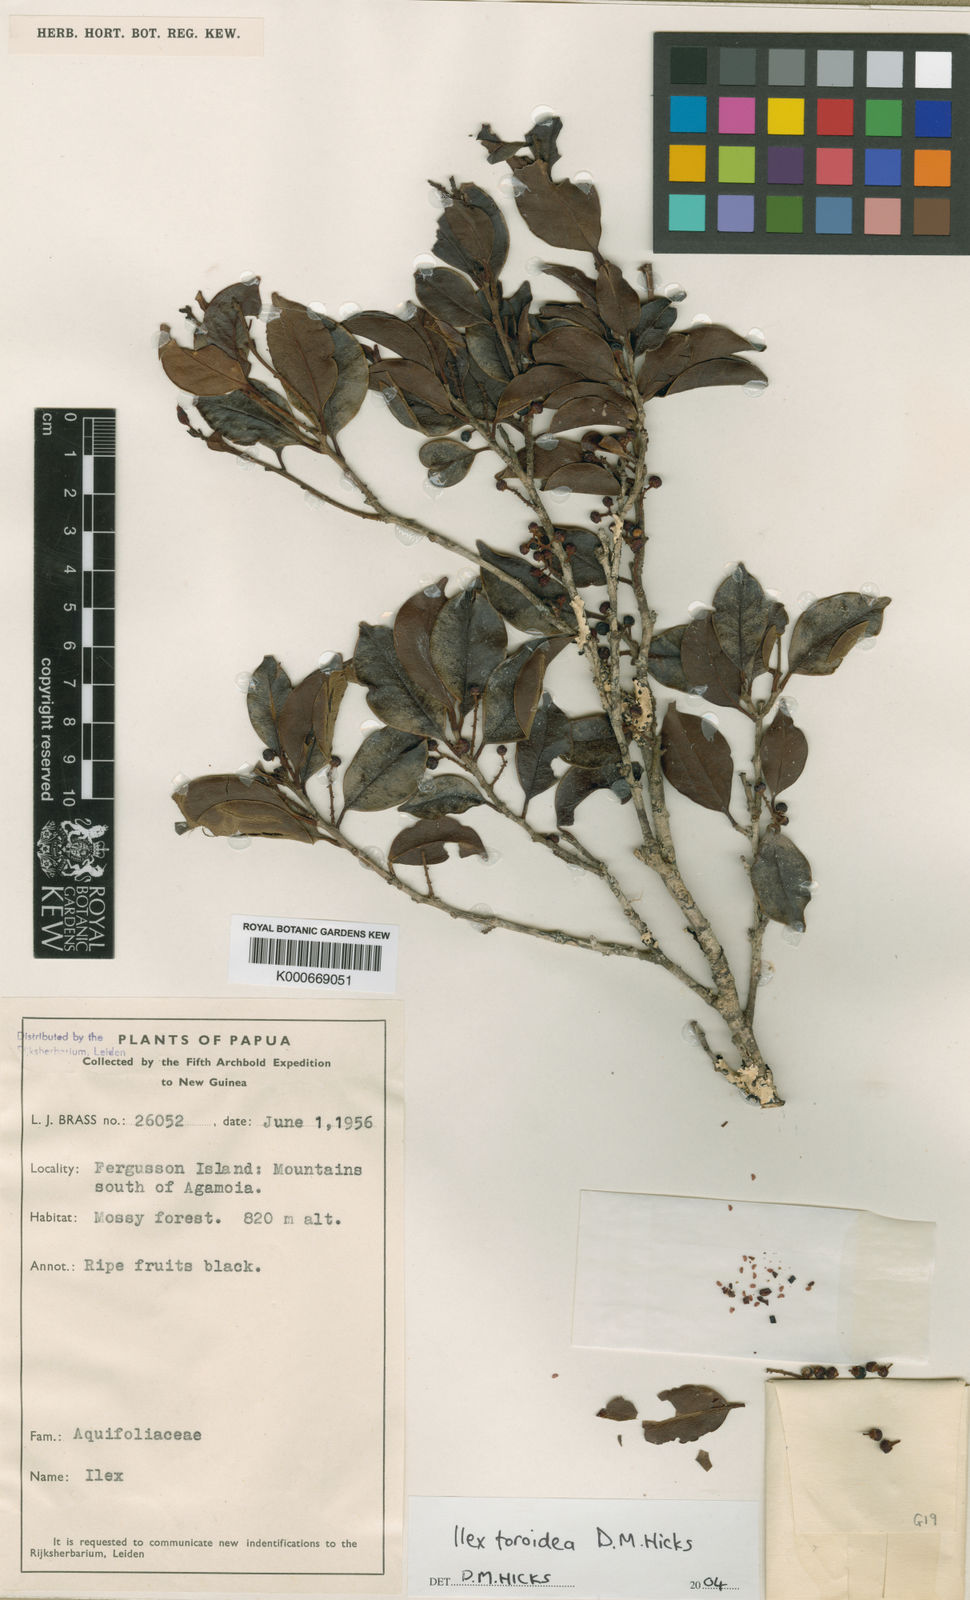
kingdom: Plantae
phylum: Tracheophyta
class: Magnoliopsida
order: Aquifoliales
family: Aquifoliaceae
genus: Ilex
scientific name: Ilex toroidea
